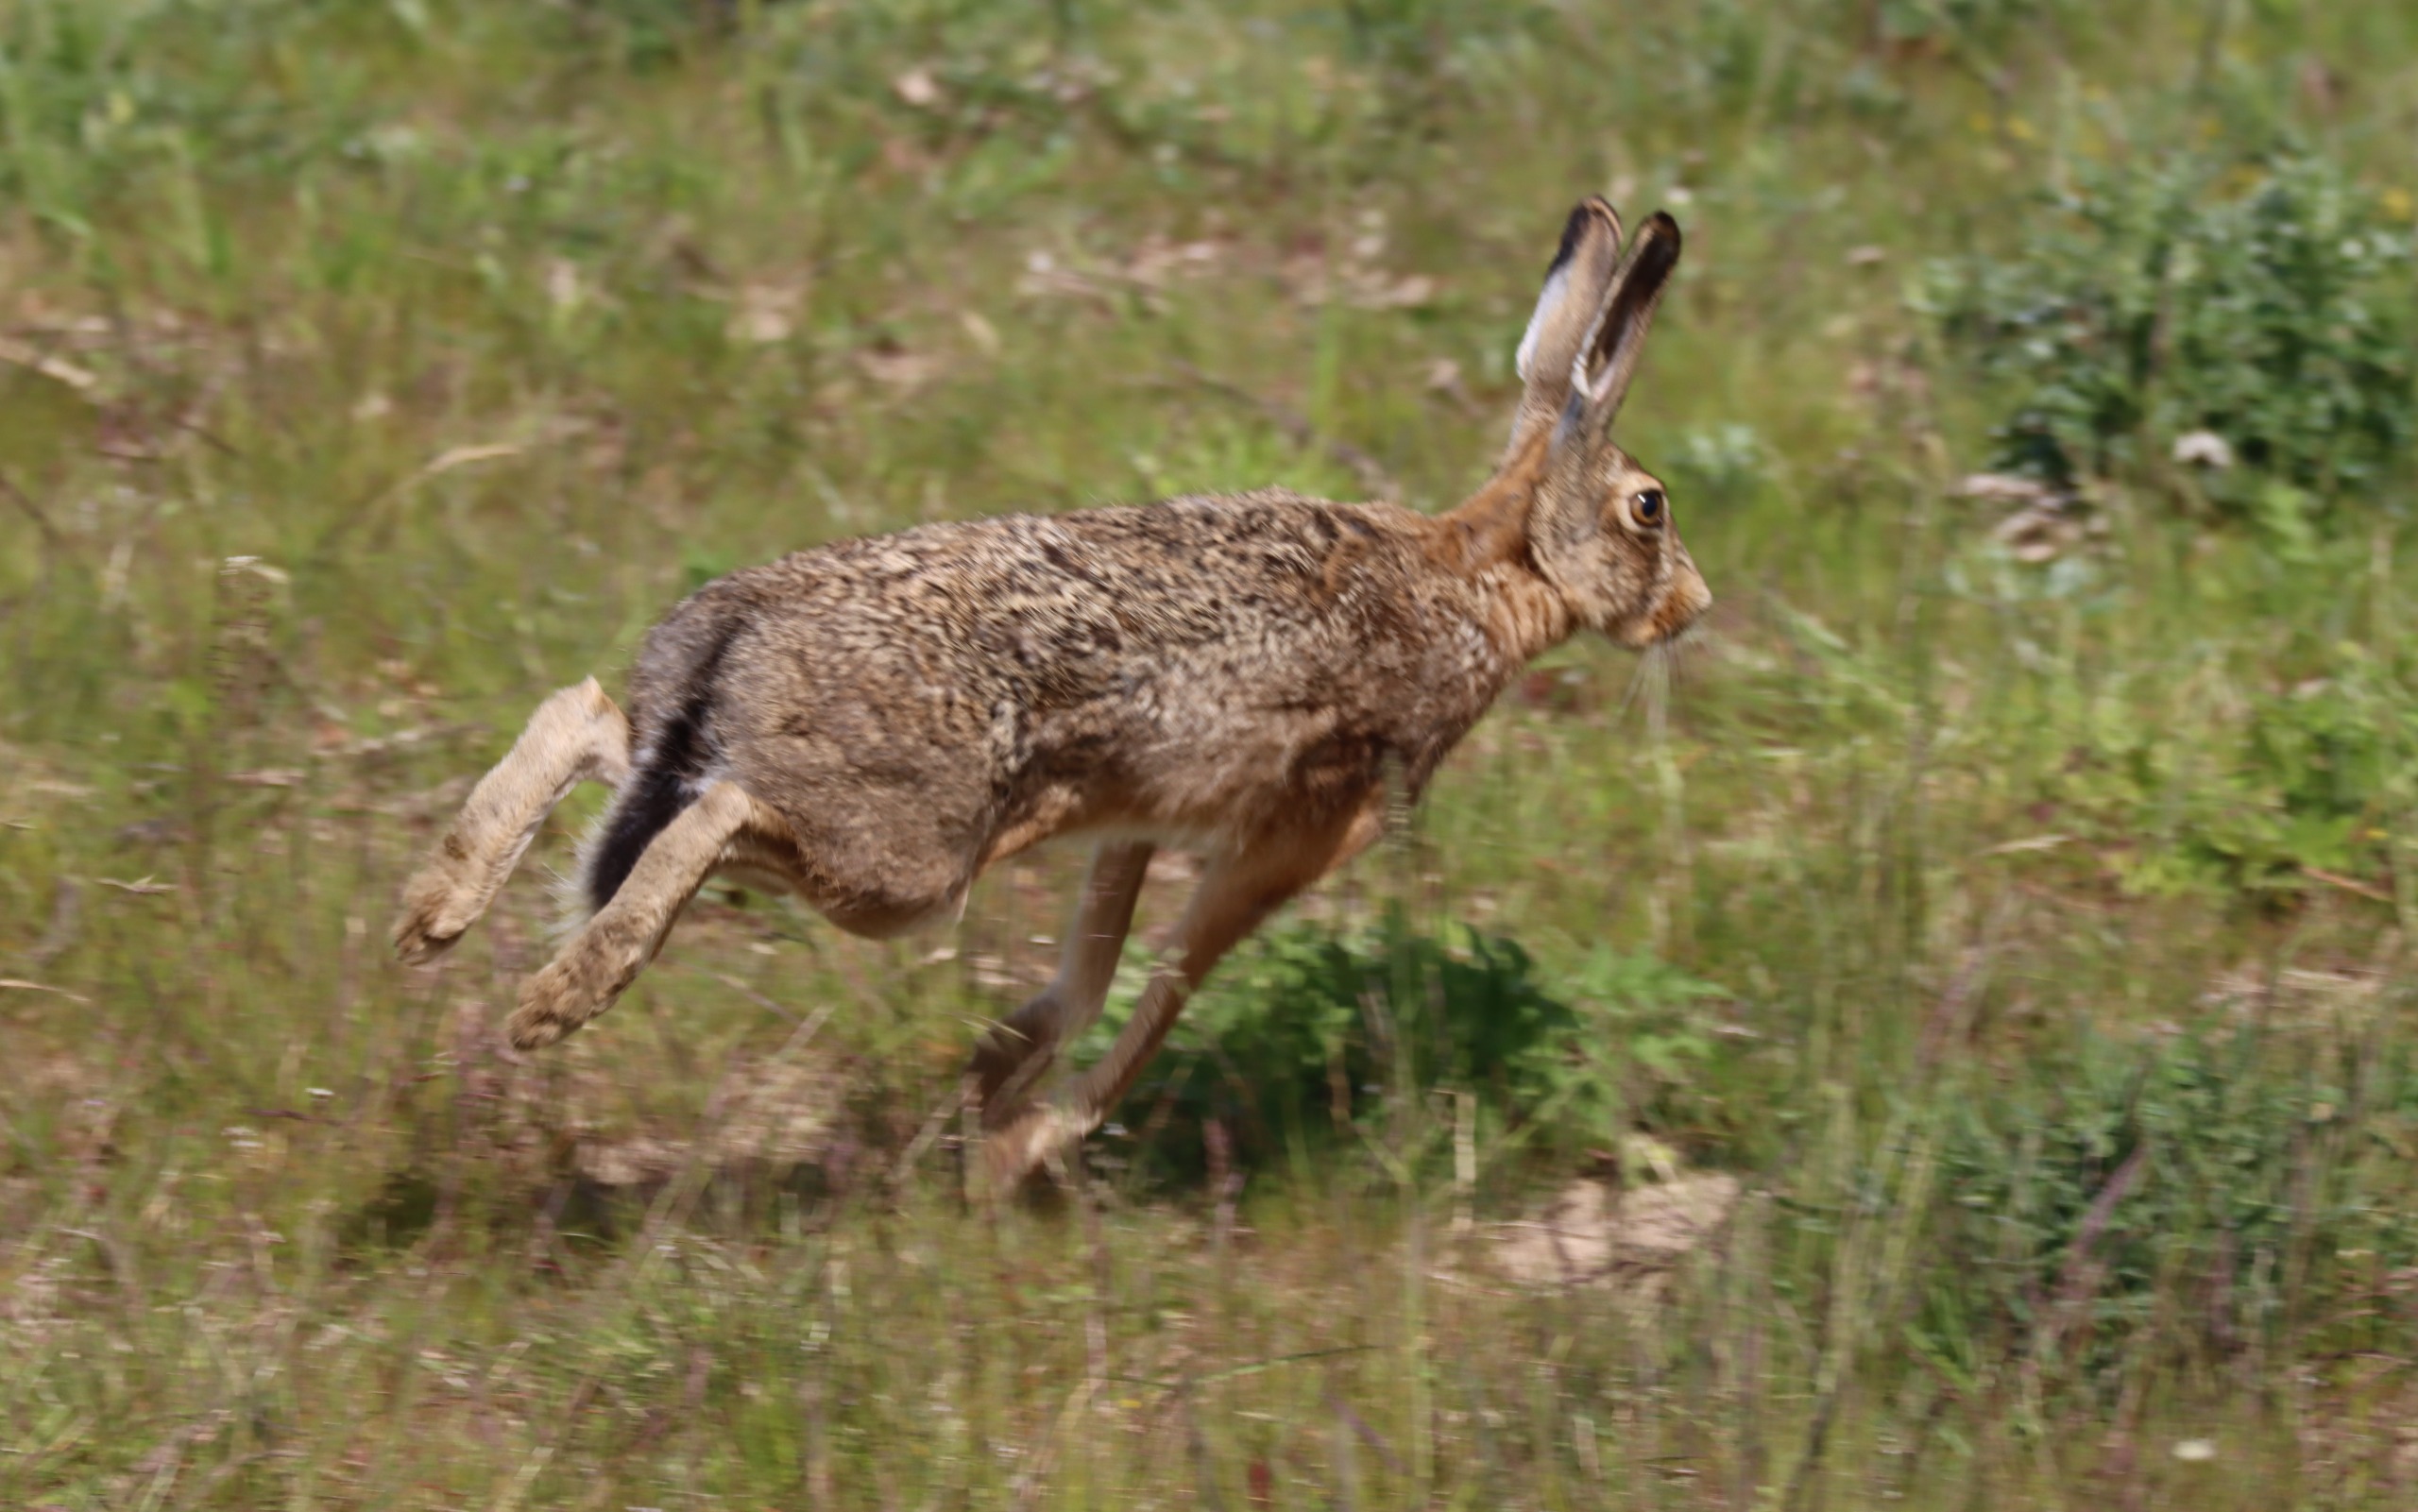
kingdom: Animalia
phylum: Chordata
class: Mammalia
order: Lagomorpha
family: Leporidae
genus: Lepus
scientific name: Lepus europaeus
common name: Hare
